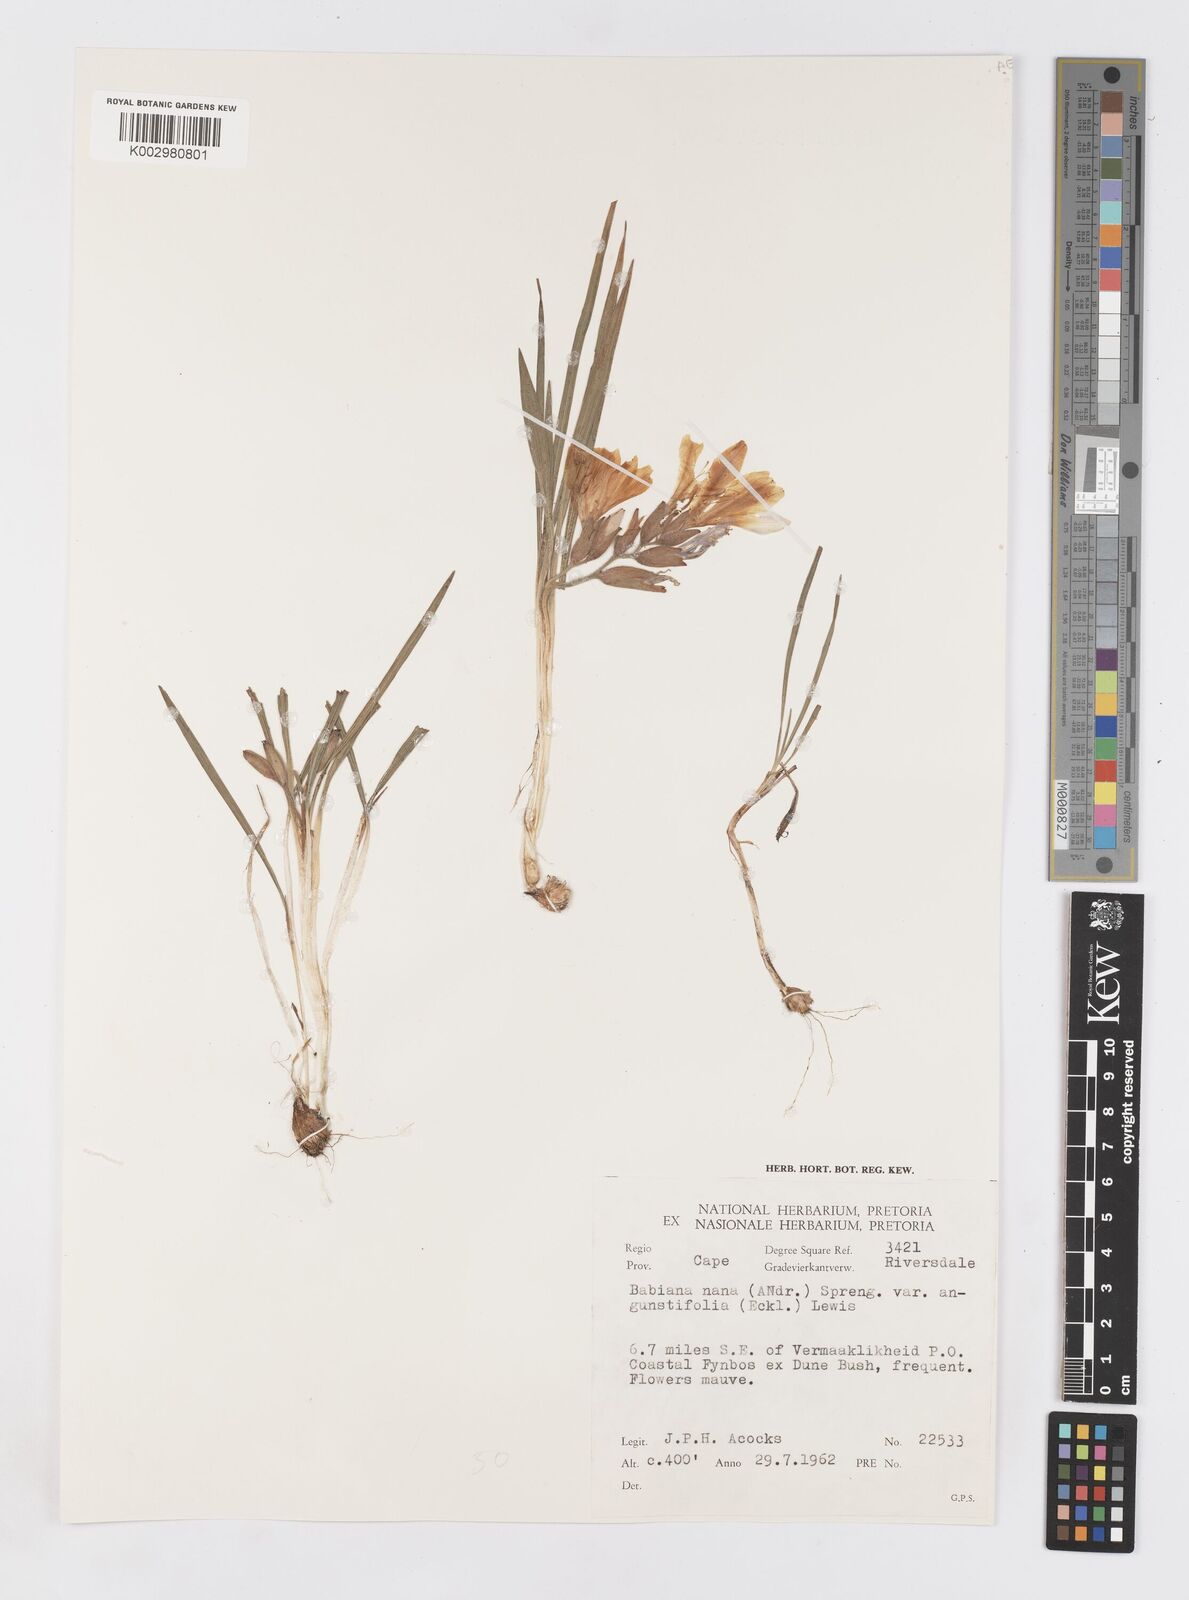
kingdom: Plantae
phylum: Tracheophyta
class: Liliopsida
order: Asparagales
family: Iridaceae
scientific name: Iridaceae
